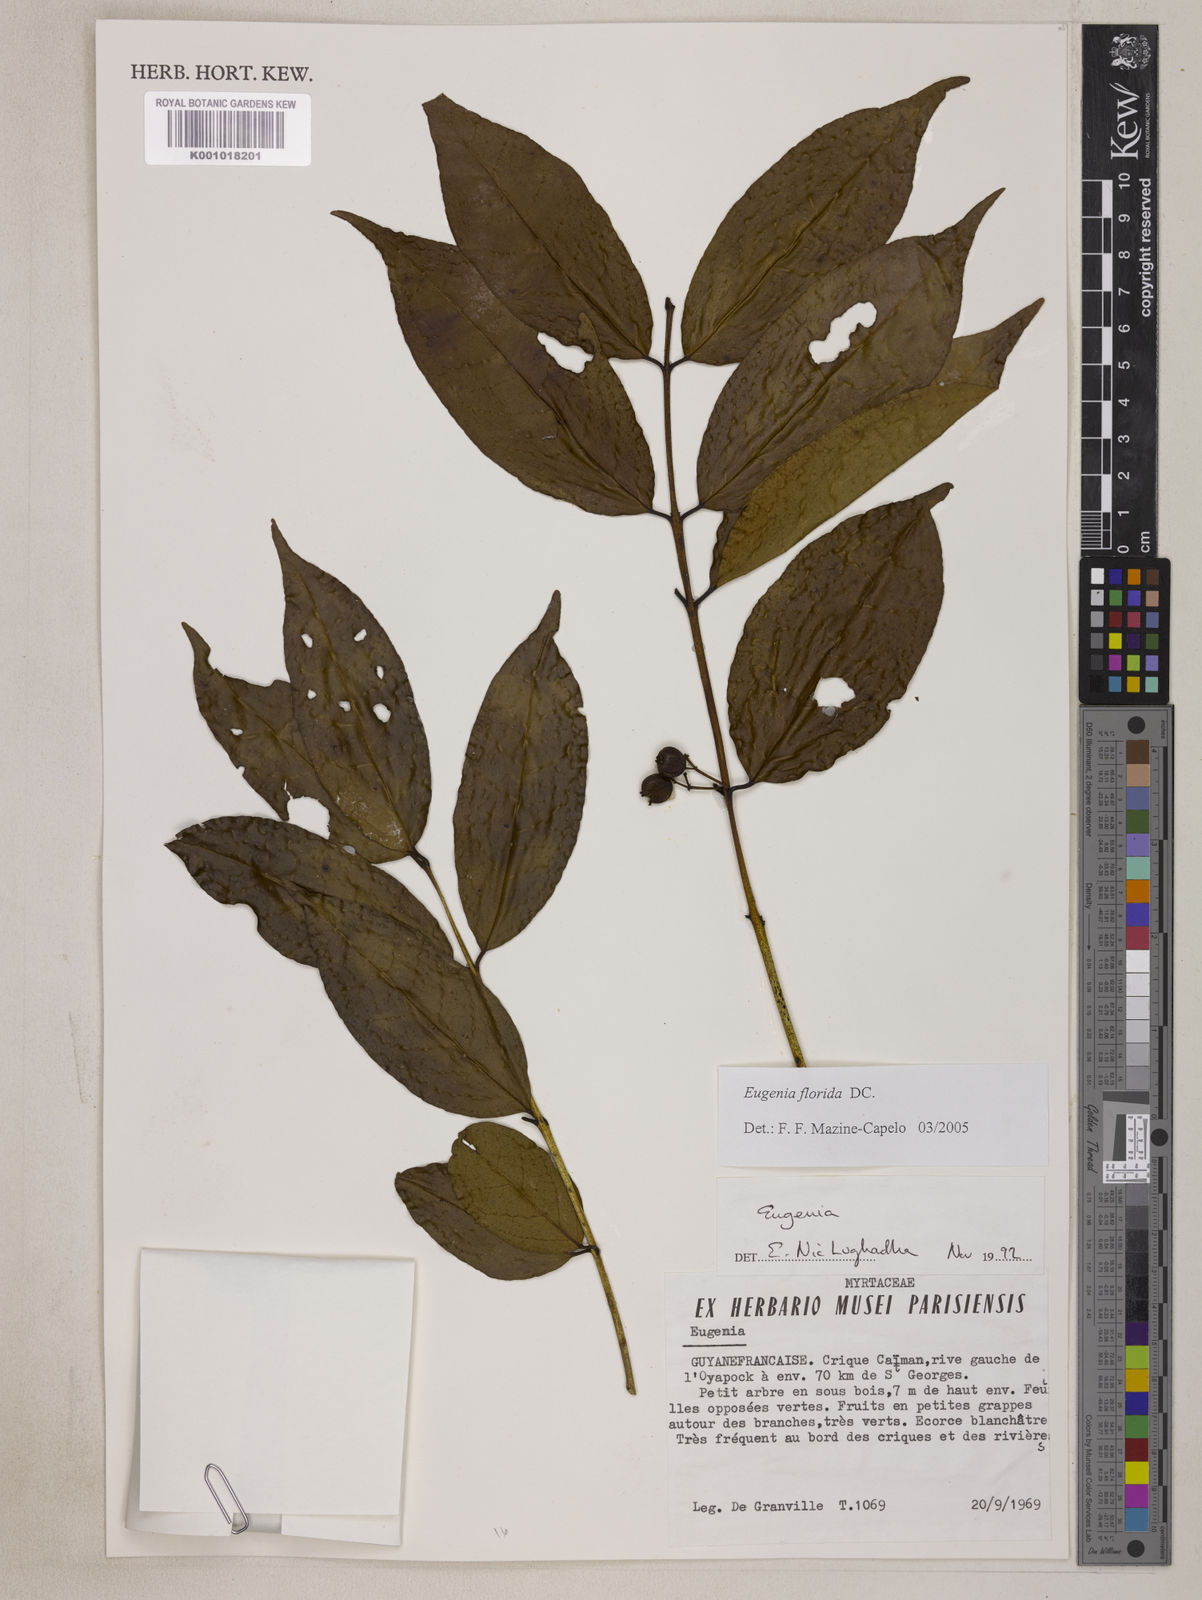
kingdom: Plantae
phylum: Tracheophyta
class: Magnoliopsida
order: Myrtales
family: Myrtaceae
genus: Eugenia
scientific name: Eugenia florida
